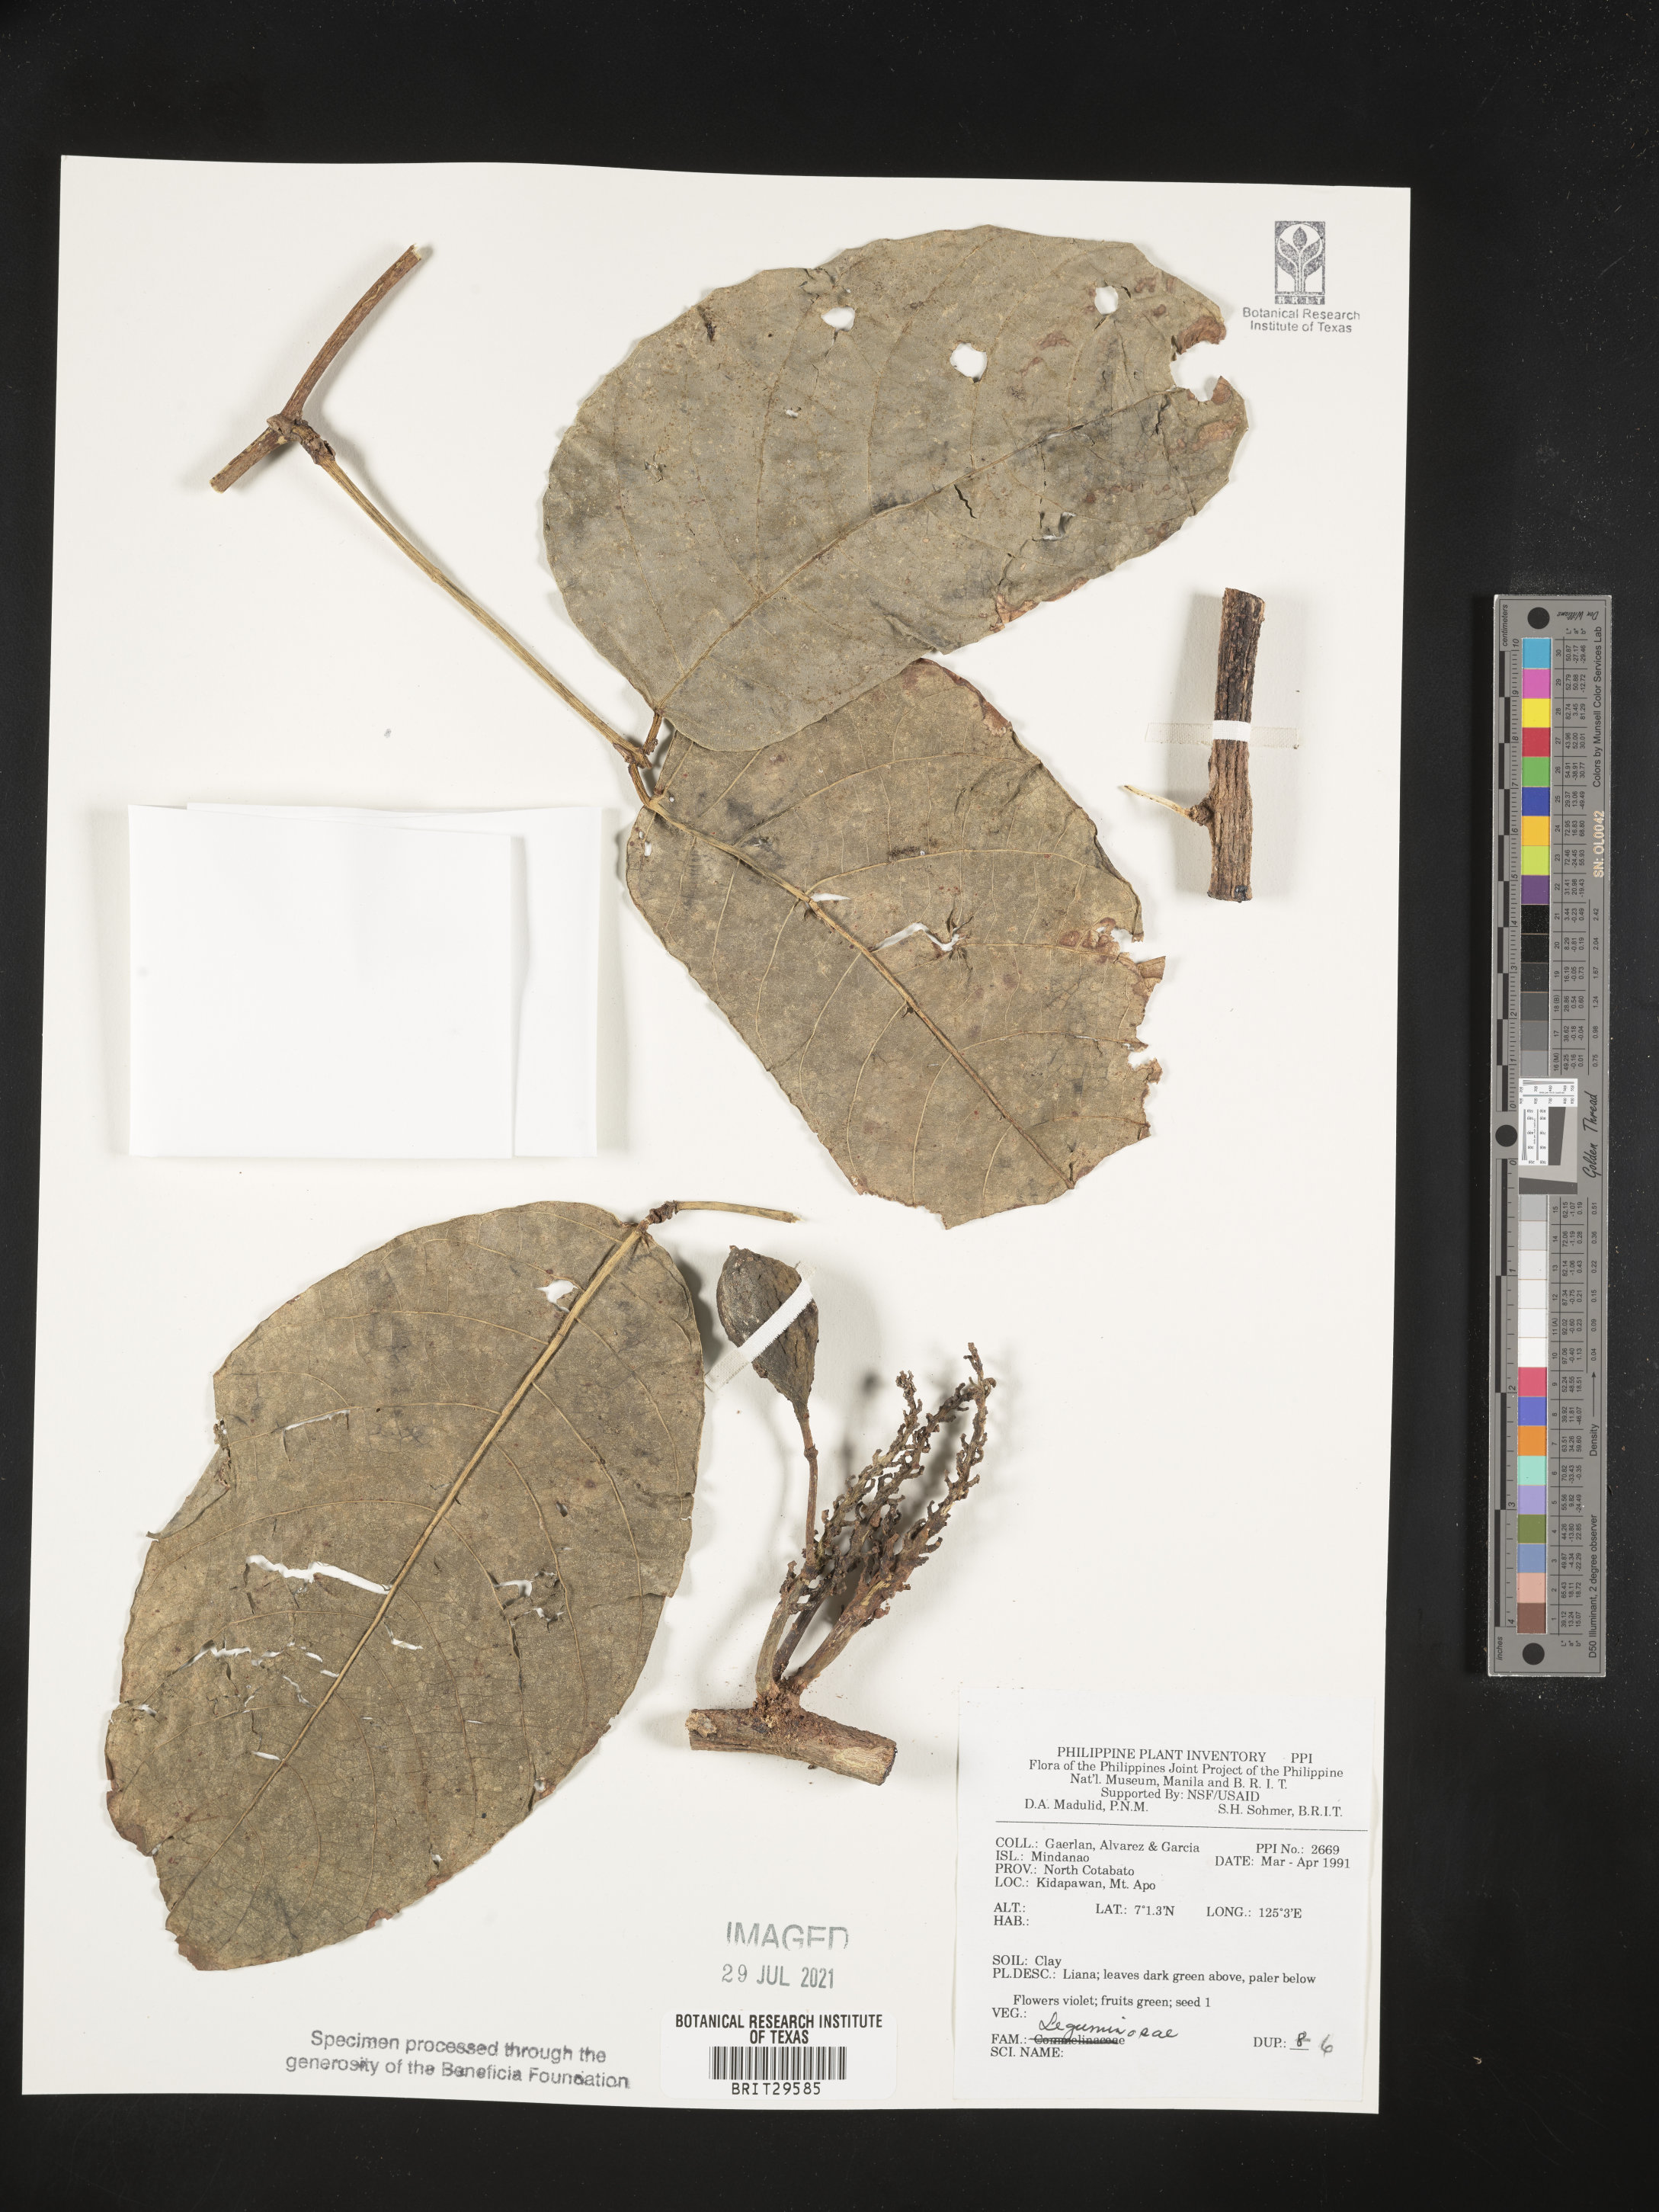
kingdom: Plantae
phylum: Tracheophyta
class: Magnoliopsida
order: Fabales
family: Fabaceae
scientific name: Fabaceae
